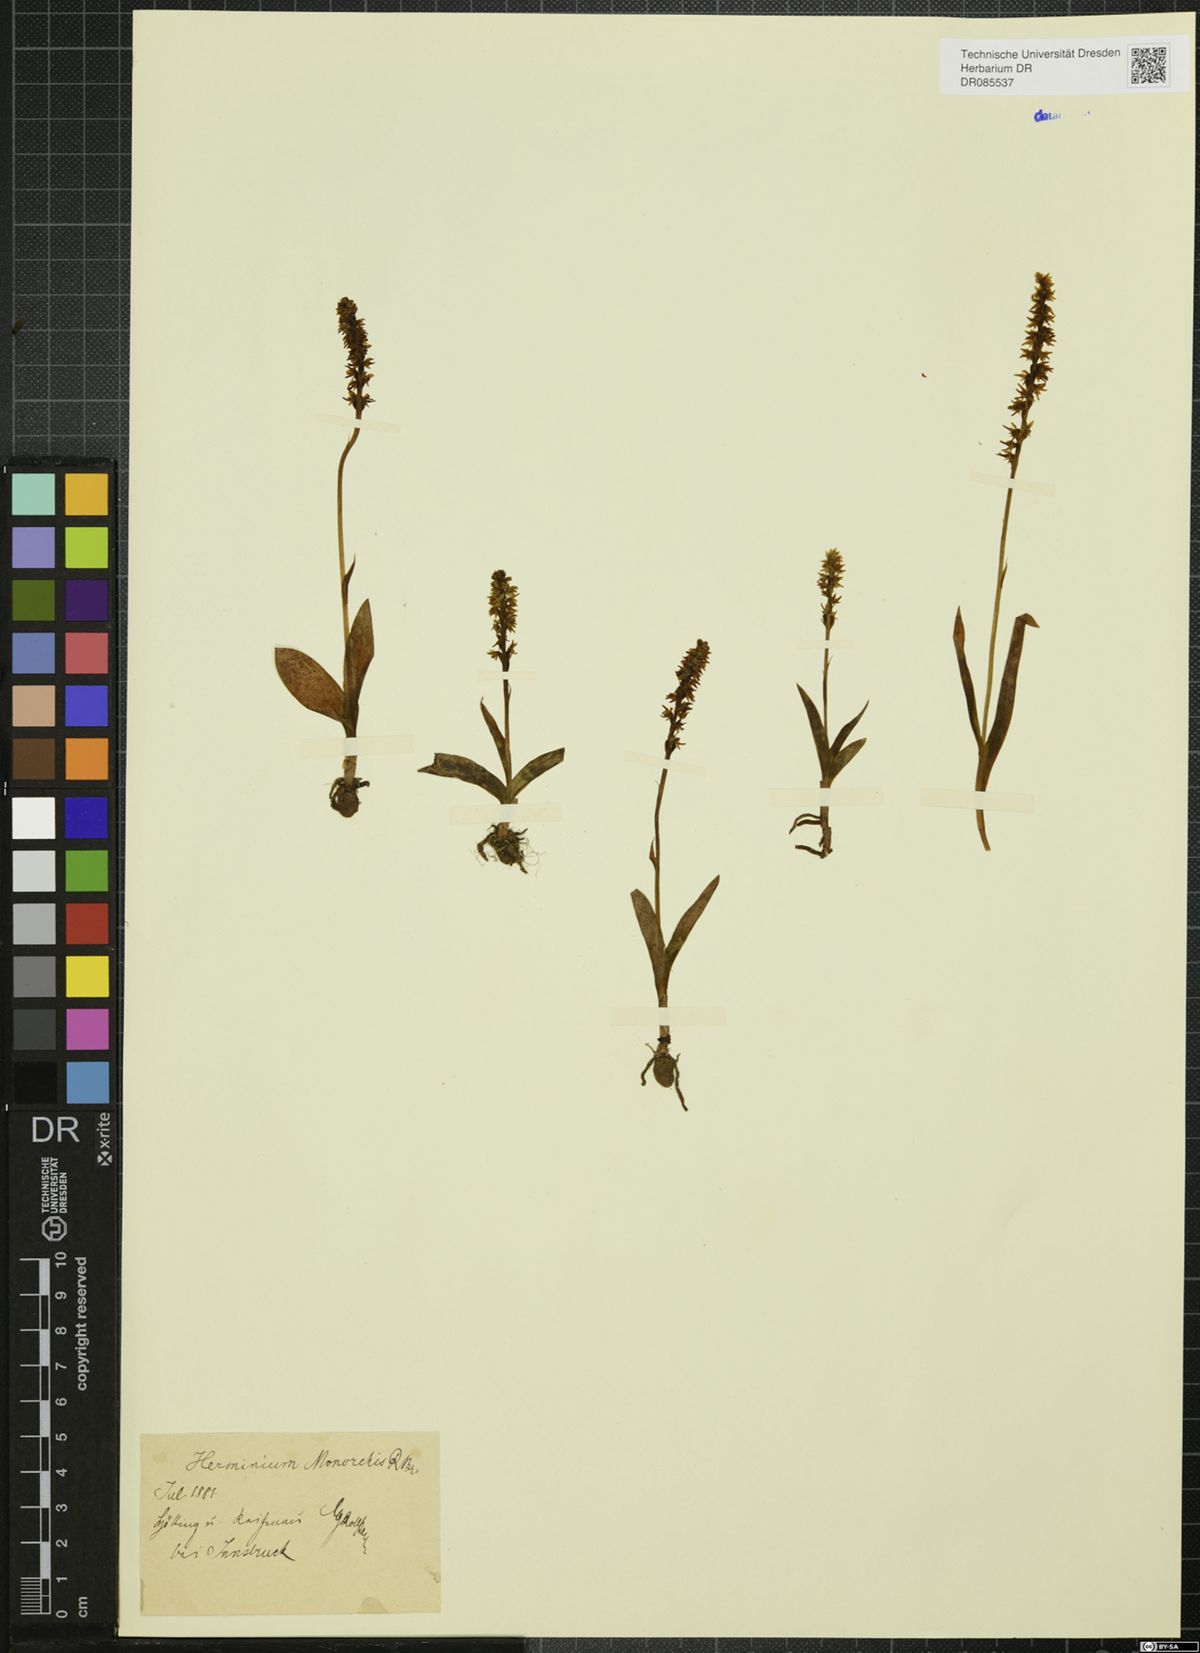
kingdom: Plantae
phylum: Tracheophyta
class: Liliopsida
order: Asparagales
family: Orchidaceae
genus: Herminium
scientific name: Herminium monorchis
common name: Musk orchid
